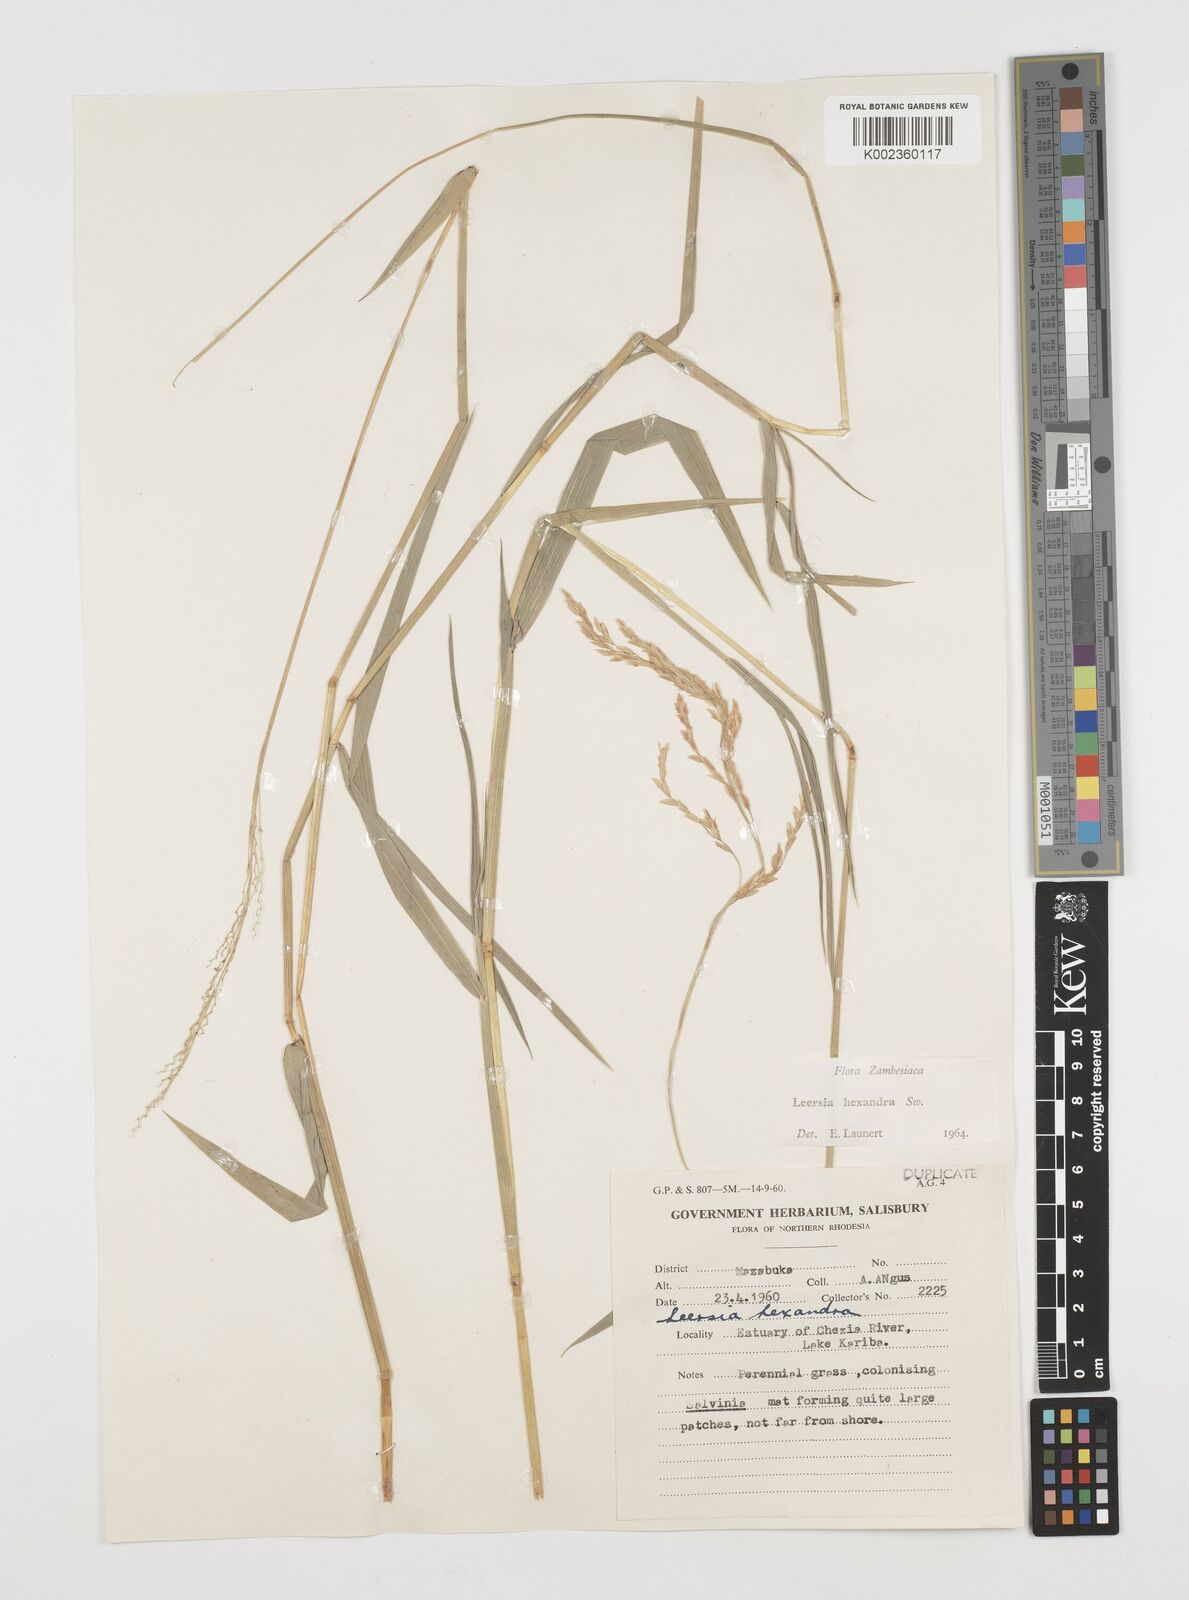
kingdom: Plantae
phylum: Tracheophyta
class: Liliopsida
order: Poales
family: Poaceae
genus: Leersia
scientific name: Leersia hexandra
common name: Southern cut grass
